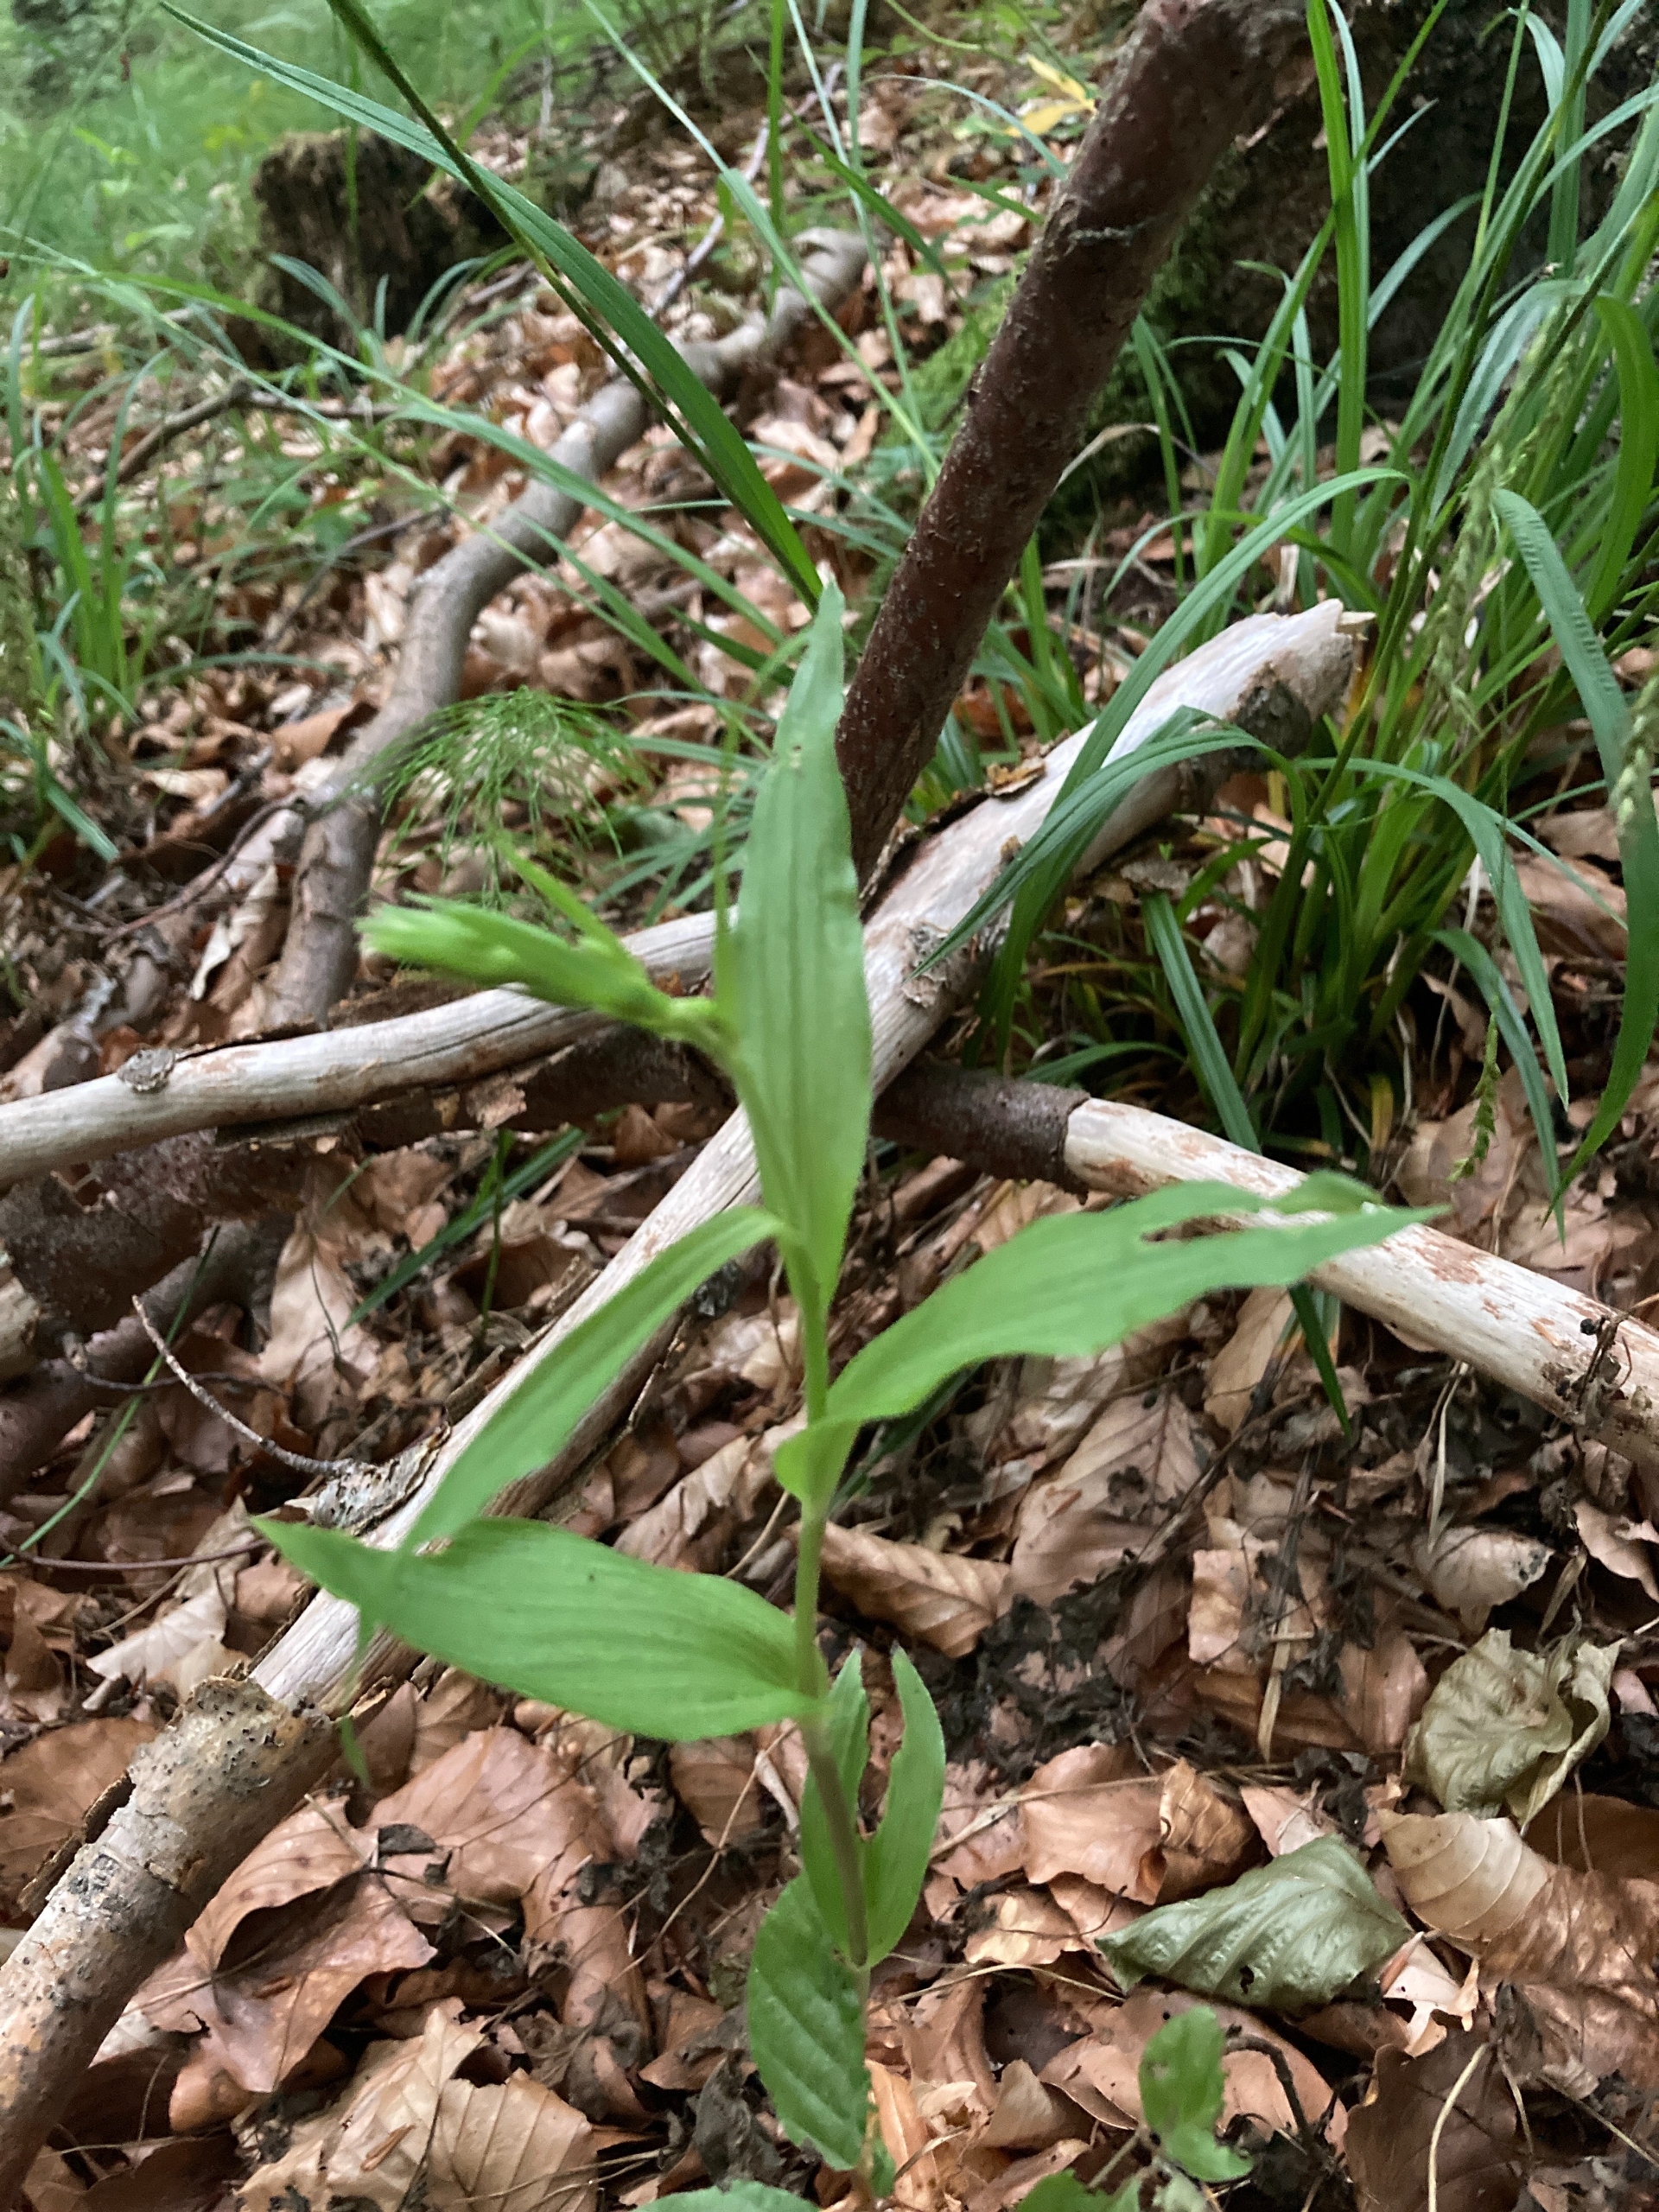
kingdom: Plantae
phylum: Tracheophyta
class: Liliopsida
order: Asparagales
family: Orchidaceae
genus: Cephalanthera
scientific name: Cephalanthera damasonium
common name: Hvidgul skovlilje
